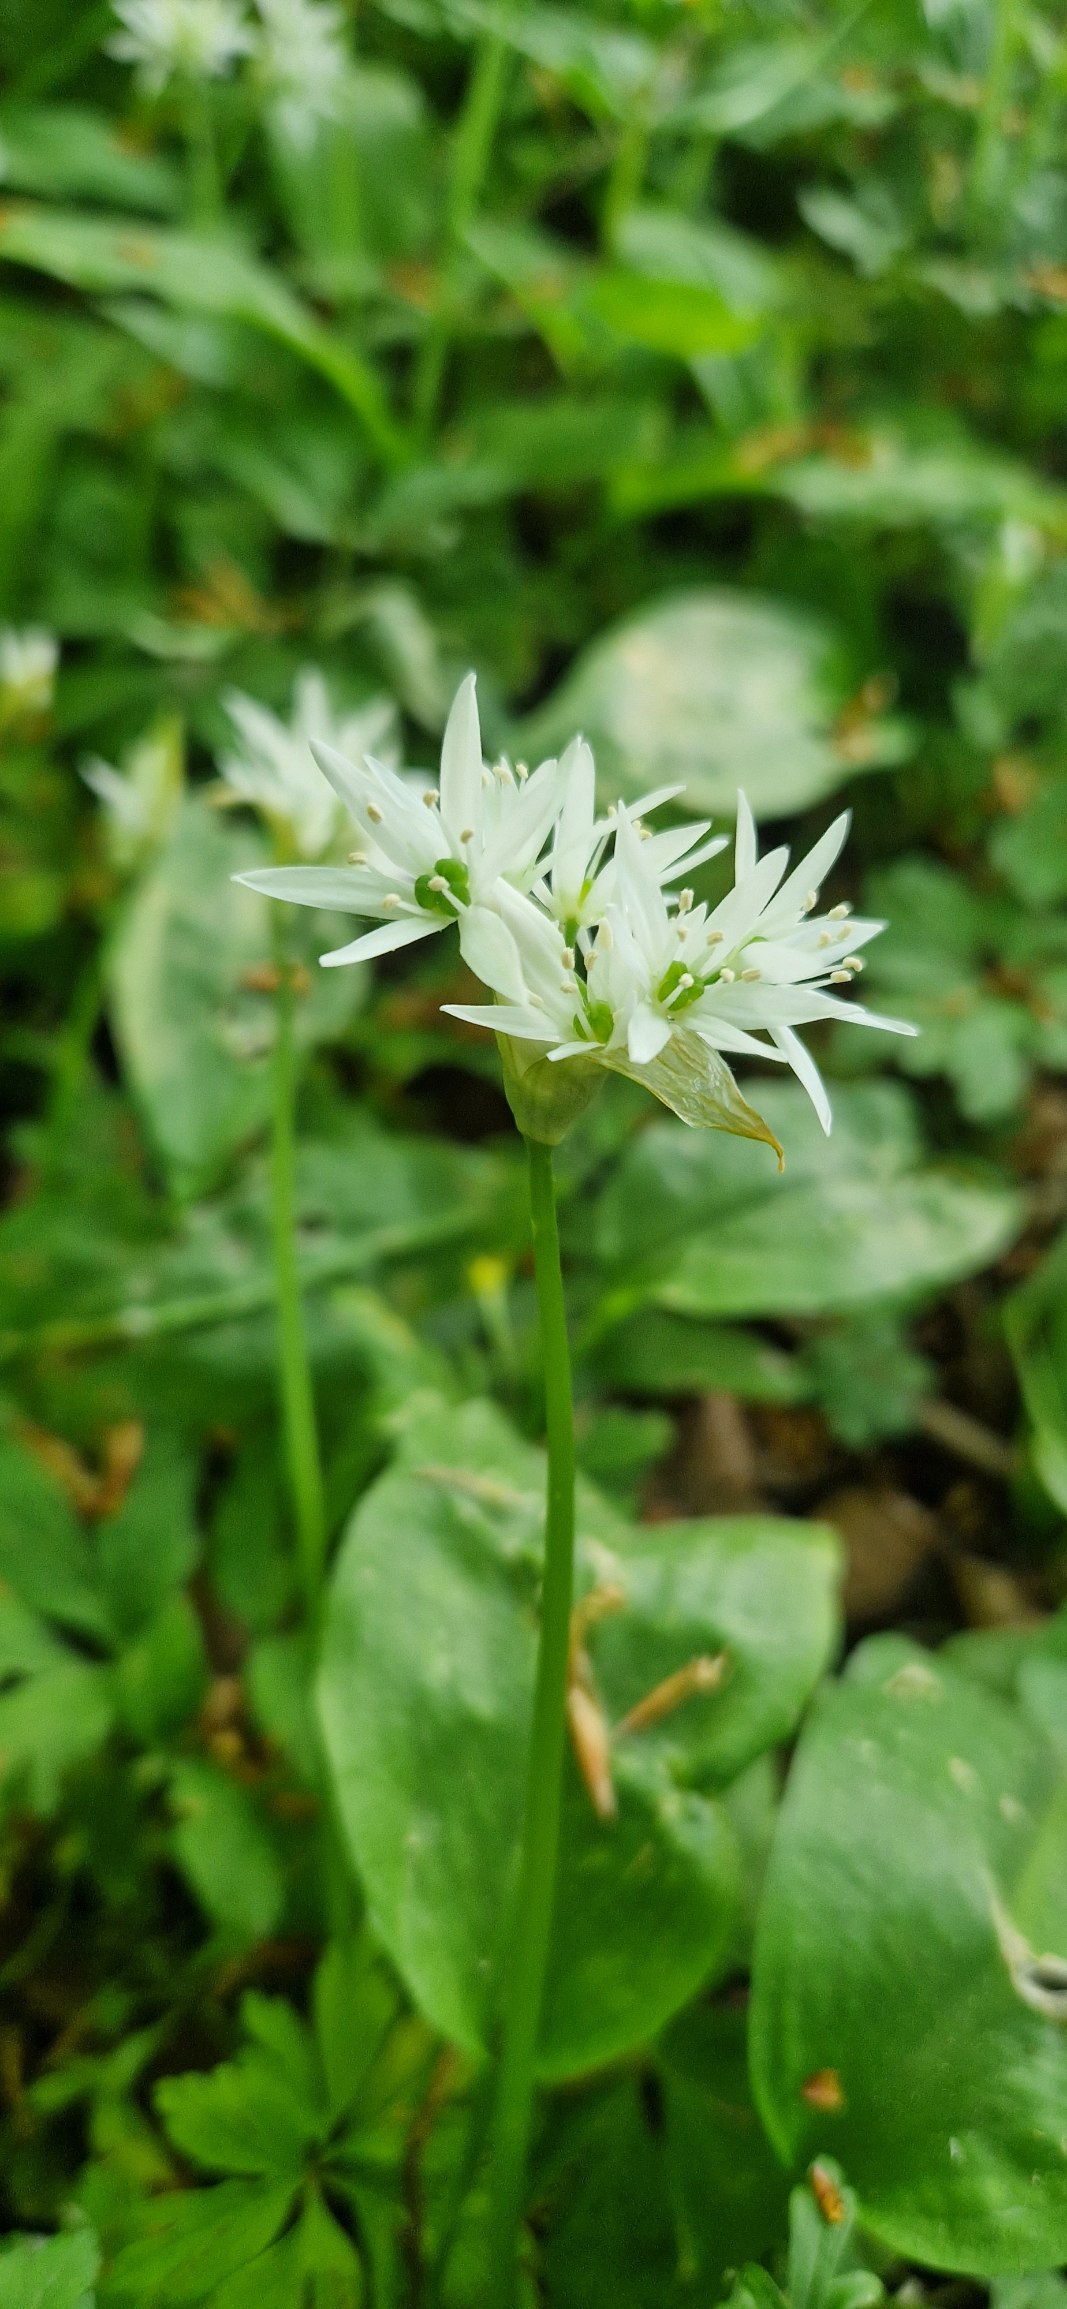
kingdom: Plantae
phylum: Tracheophyta
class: Liliopsida
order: Asparagales
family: Amaryllidaceae
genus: Allium
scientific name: Allium ursinum
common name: Rams-løg
